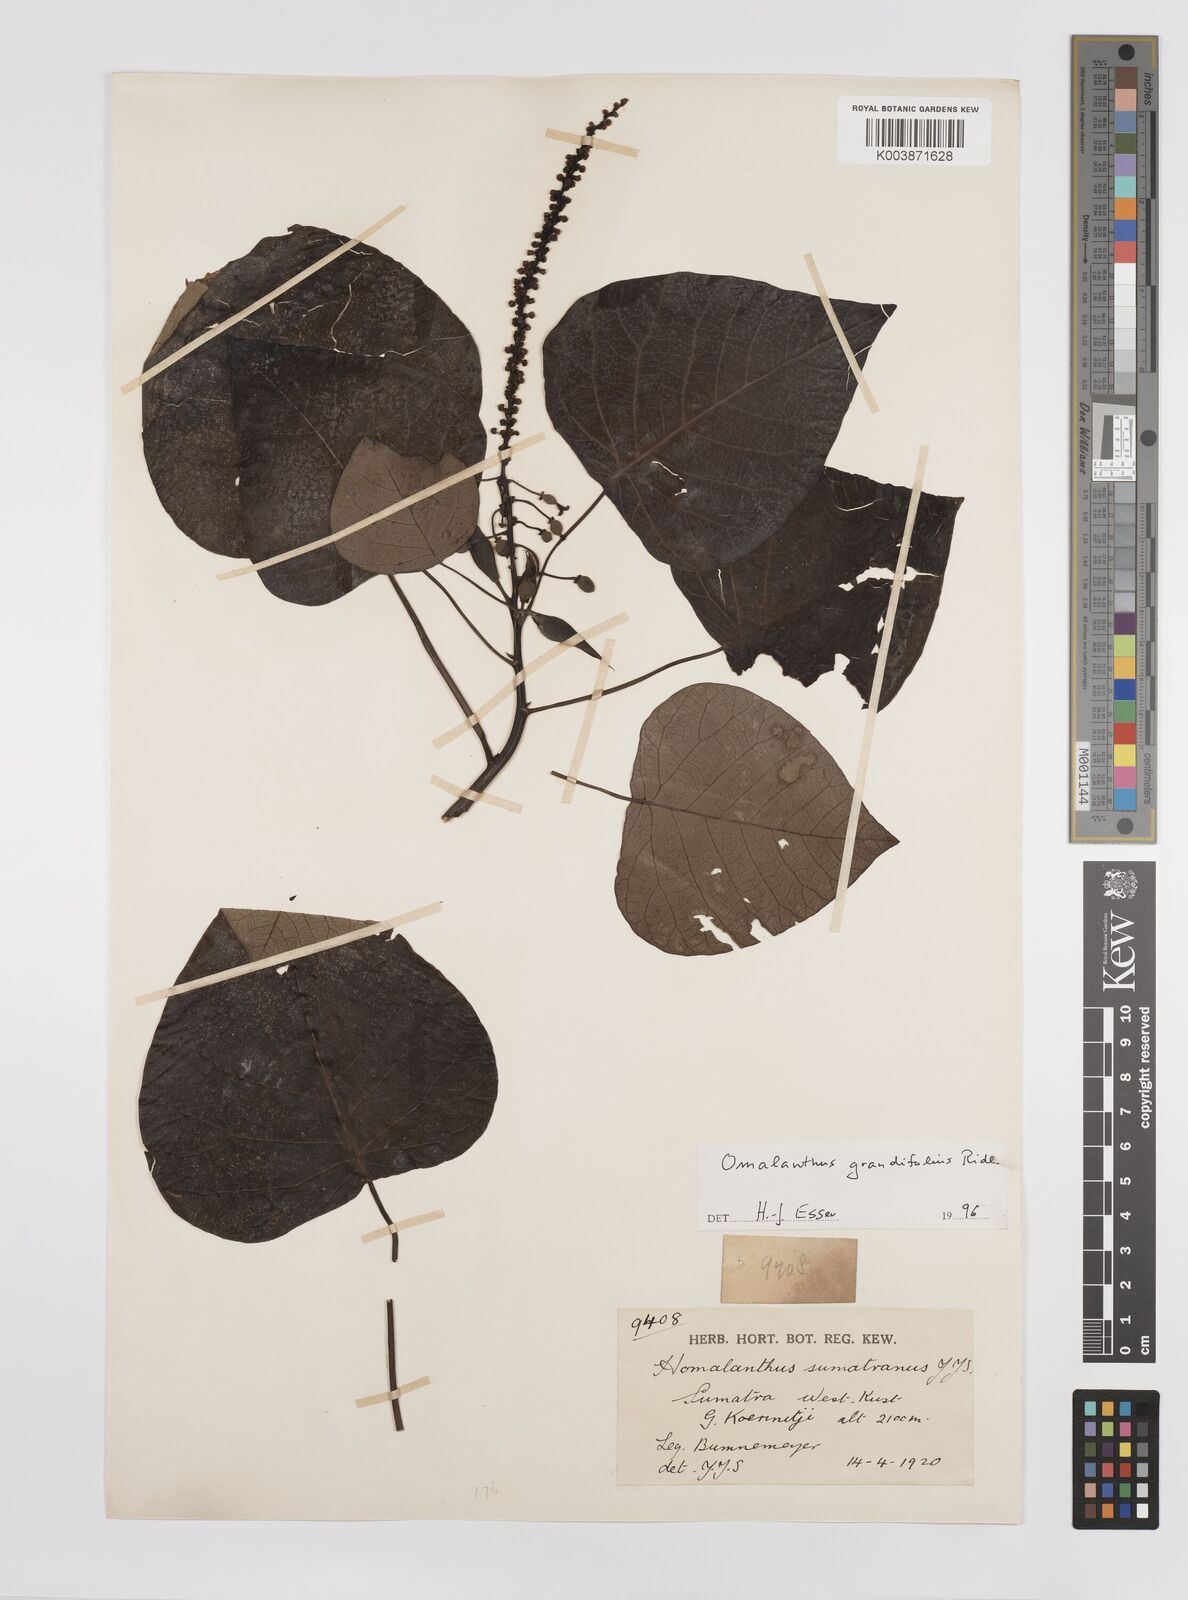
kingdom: Plantae
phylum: Tracheophyta
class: Magnoliopsida
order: Malpighiales
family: Euphorbiaceae
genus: Homalanthus
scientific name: Homalanthus grandifolius
